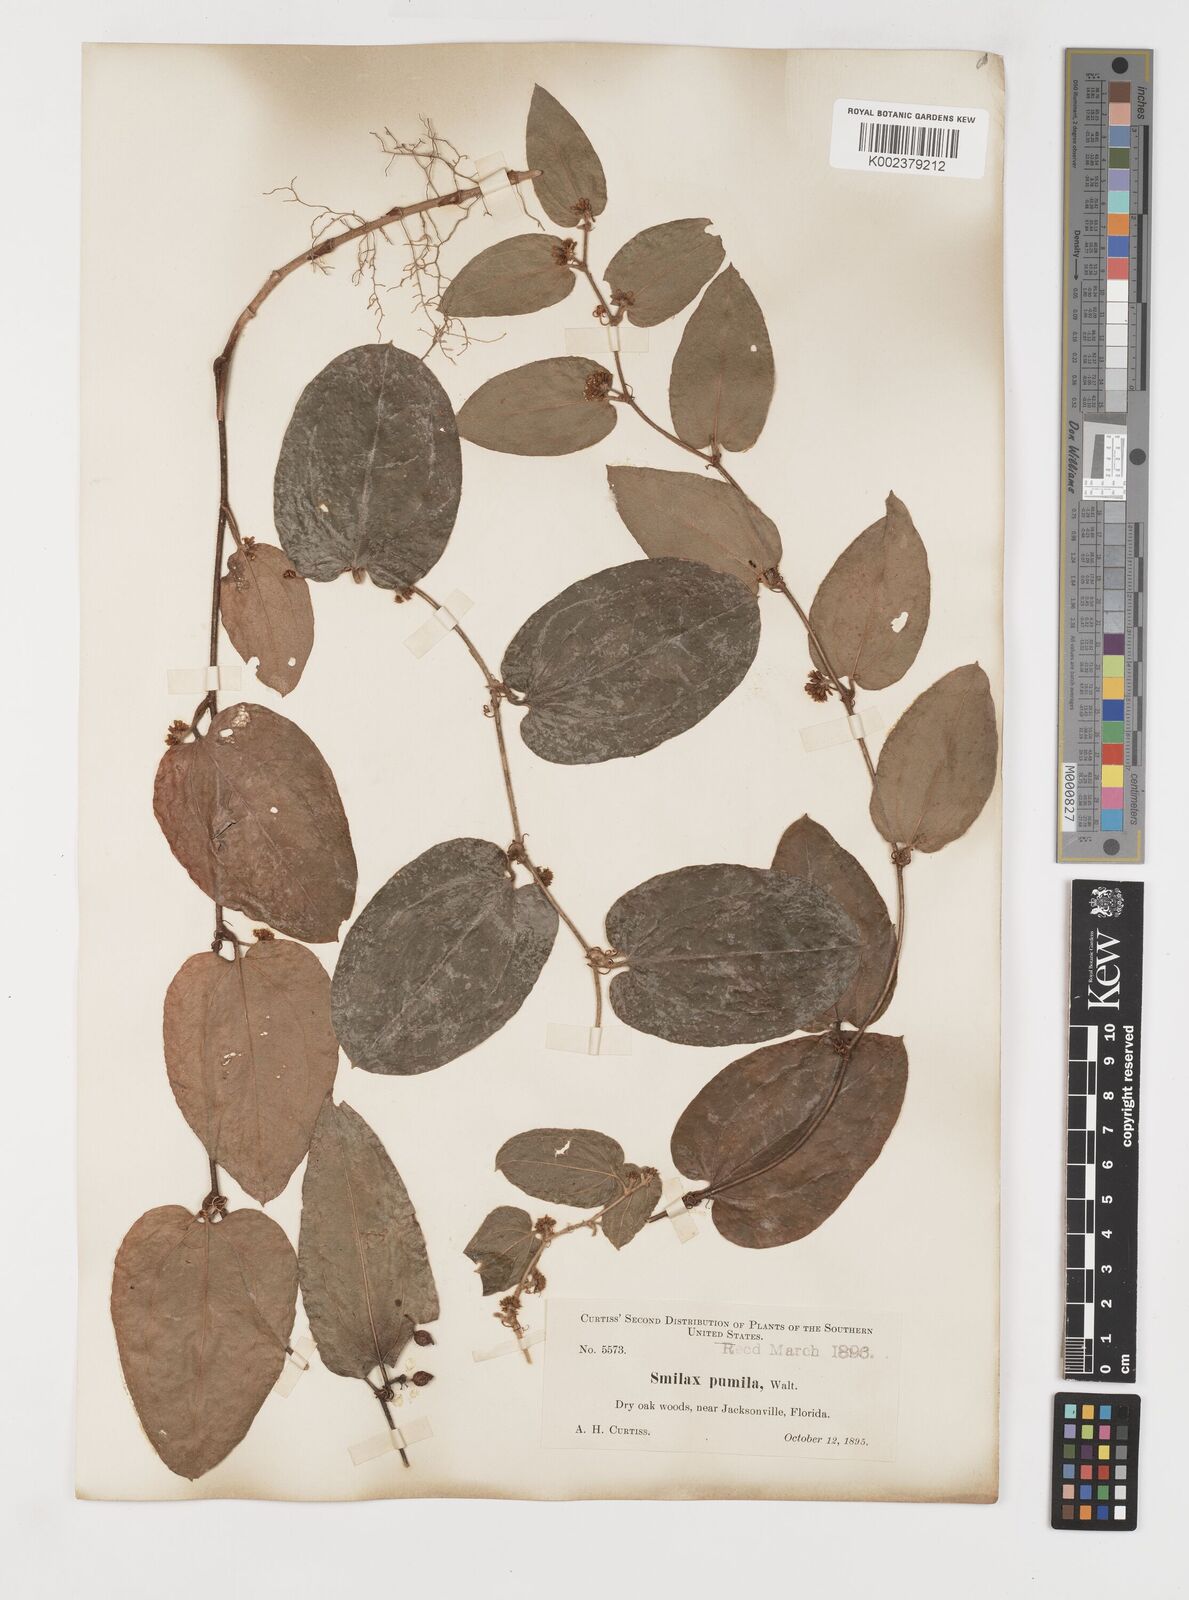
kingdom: Plantae
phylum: Tracheophyta
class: Liliopsida
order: Liliales
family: Smilacaceae
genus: Smilax
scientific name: Smilax pumila
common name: Sarsaparilla-vine
